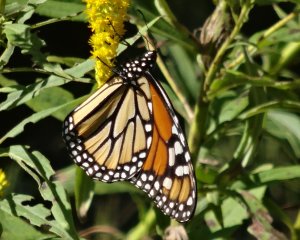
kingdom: Animalia
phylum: Arthropoda
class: Insecta
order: Lepidoptera
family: Nymphalidae
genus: Danaus
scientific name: Danaus plexippus
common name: Monarch
